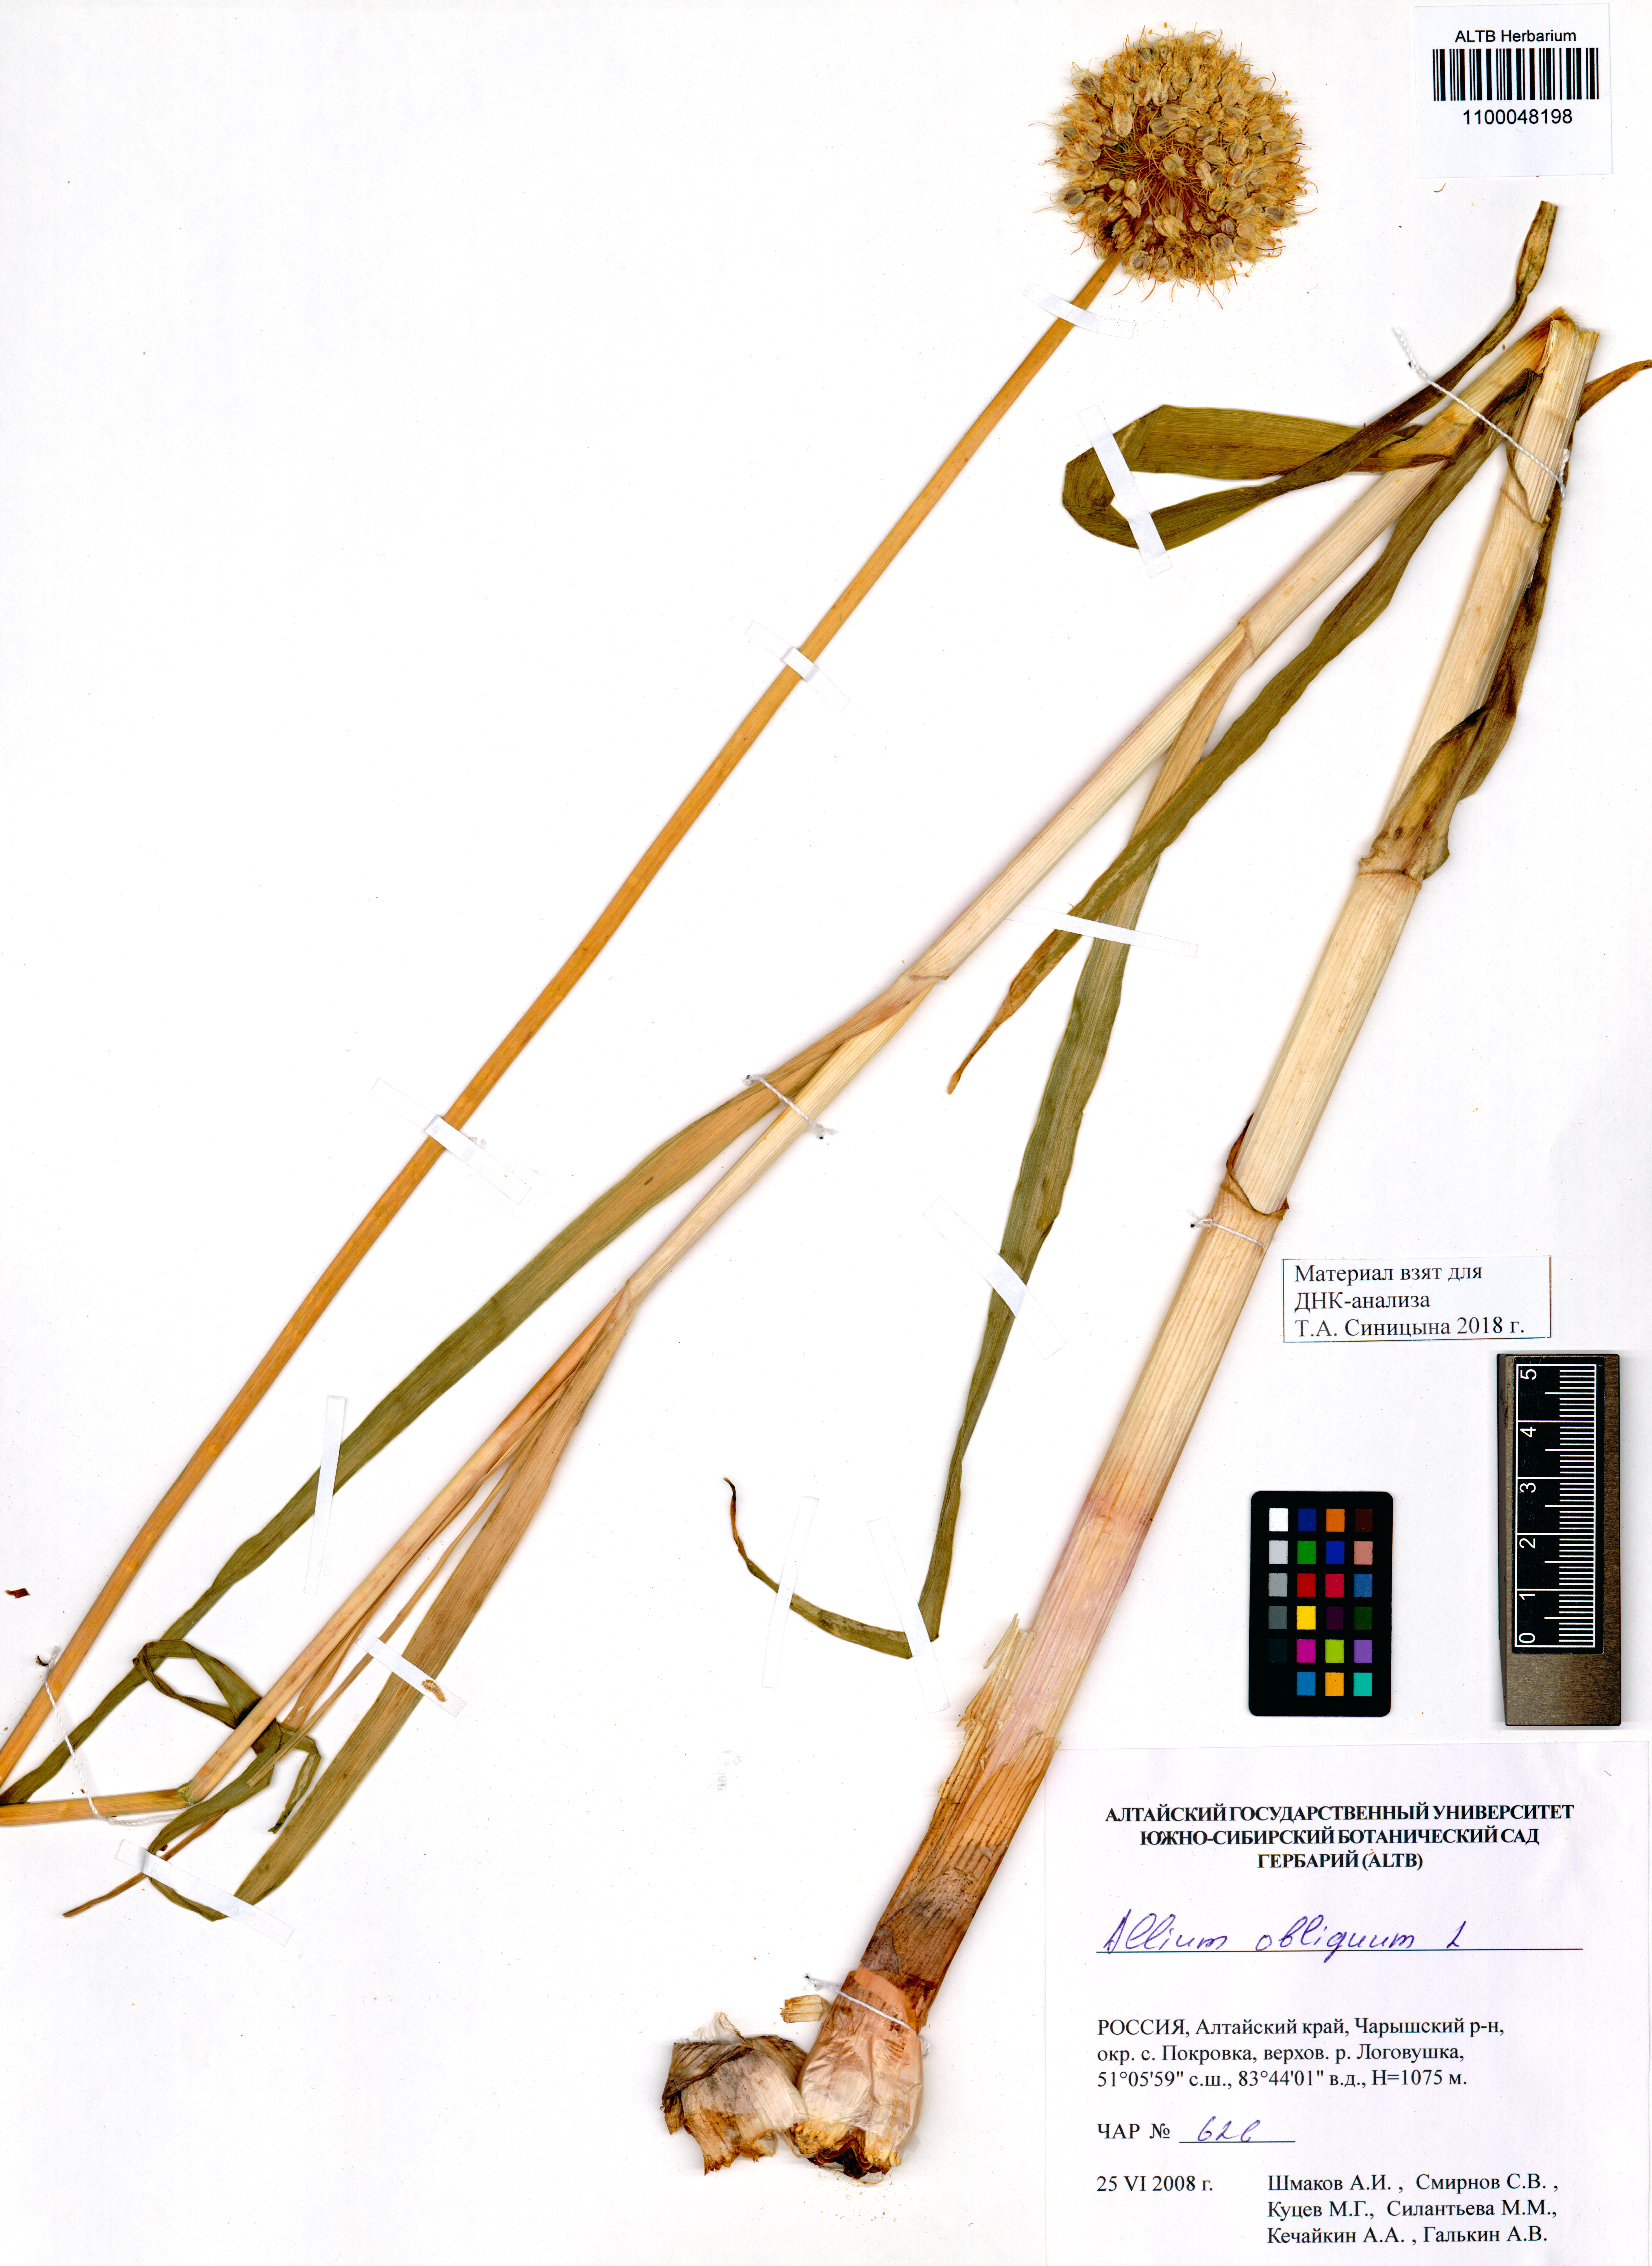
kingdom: Plantae
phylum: Tracheophyta
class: Liliopsida
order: Asparagales
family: Amaryllidaceae
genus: Allium
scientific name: Allium obliquum
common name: Oblique onion
